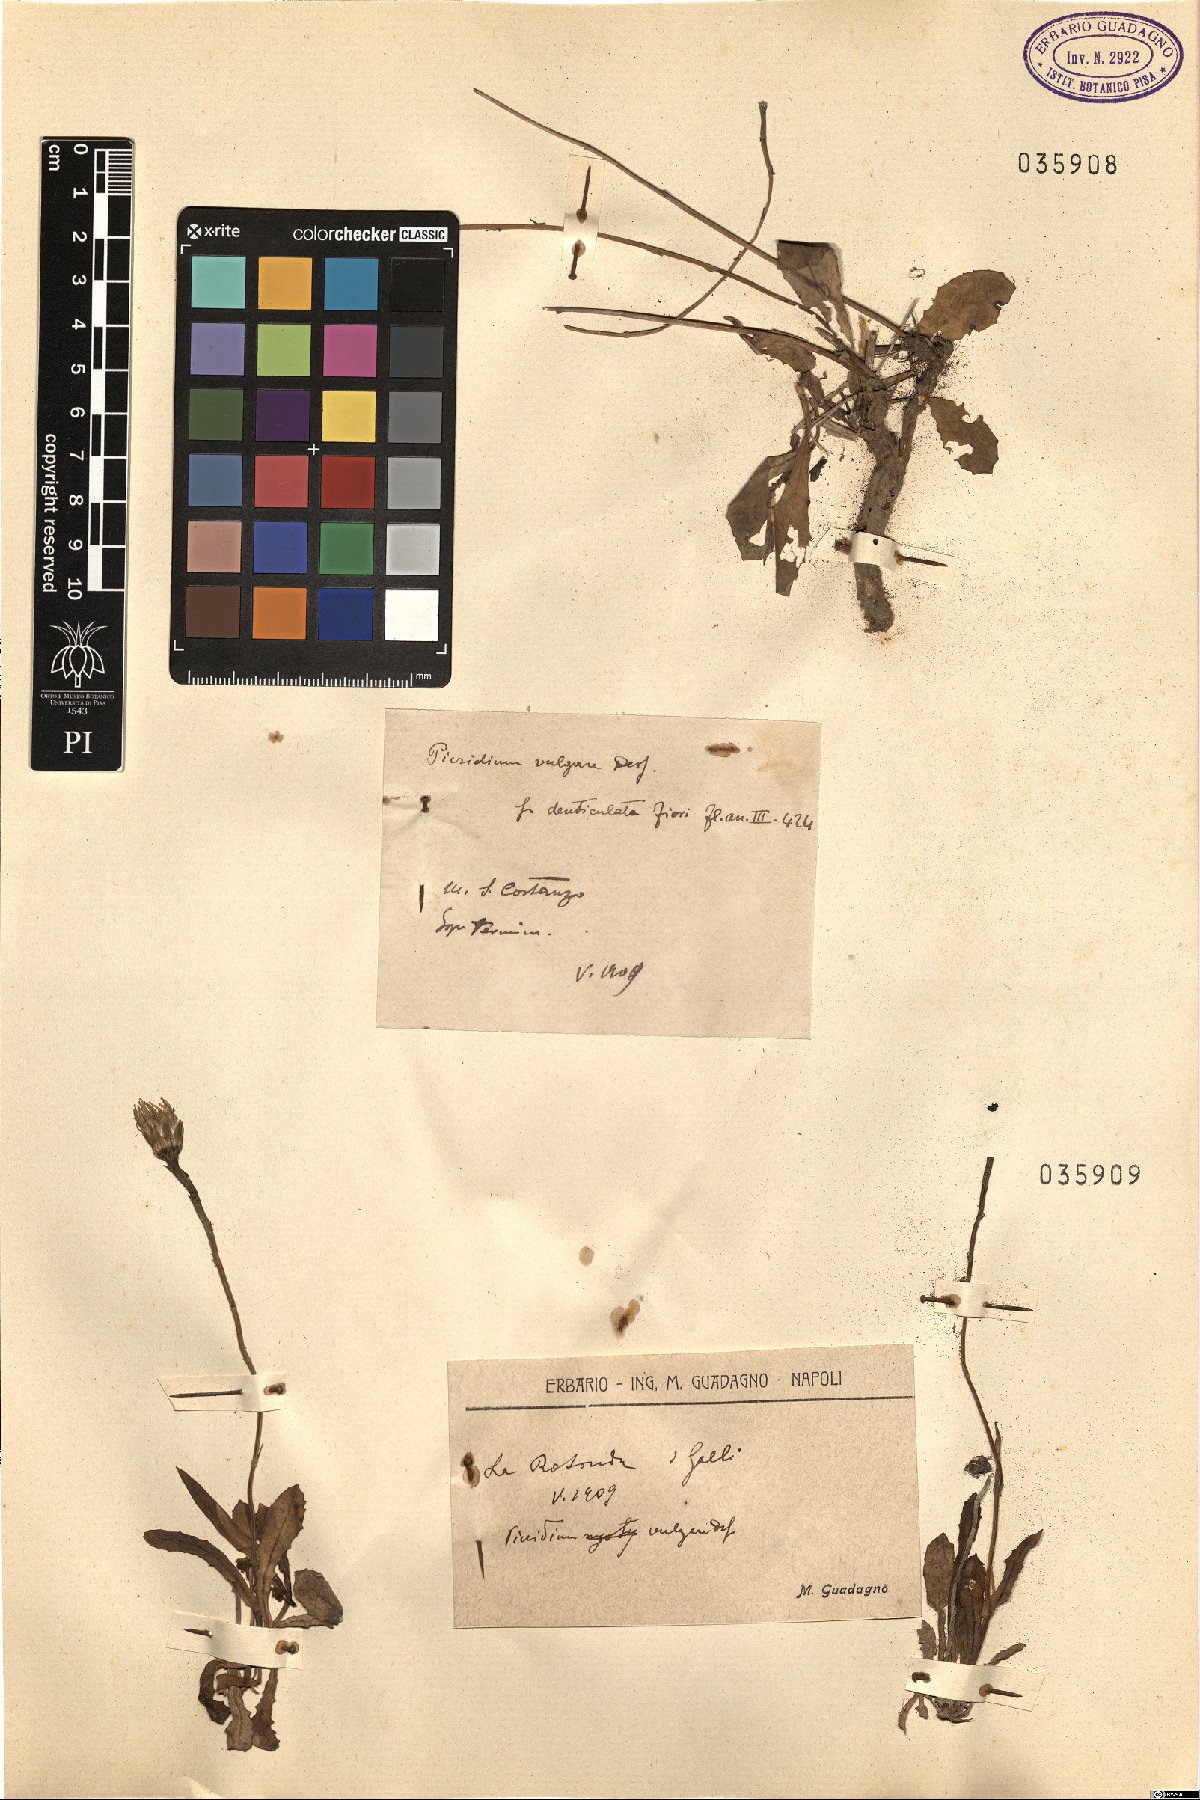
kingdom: Plantae
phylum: Tracheophyta
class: Magnoliopsida
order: Asterales
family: Asteraceae
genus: Reichardia
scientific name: Reichardia picroides
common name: Common brighteyes
